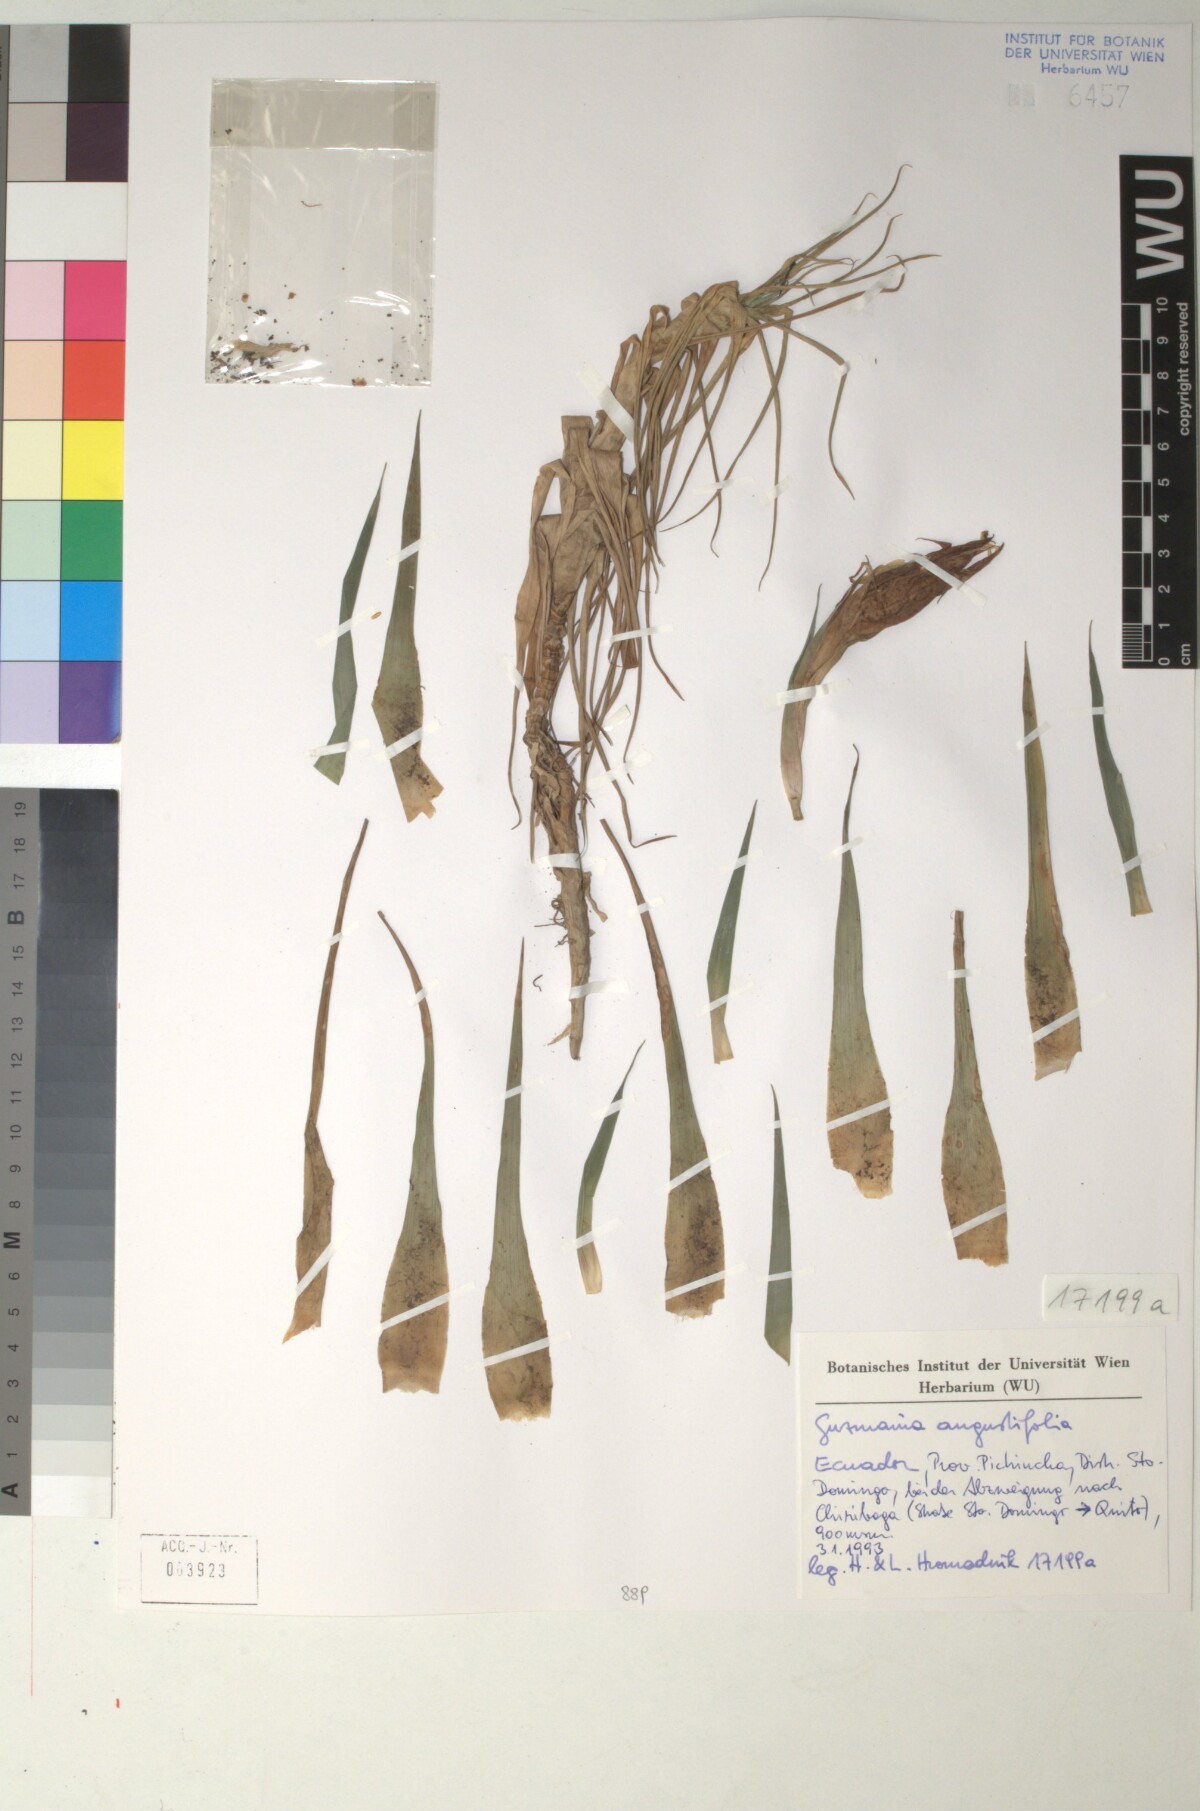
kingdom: Plantae
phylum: Tracheophyta
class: Liliopsida
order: Poales
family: Bromeliaceae
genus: Guzmania
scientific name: Guzmania angustifolia
